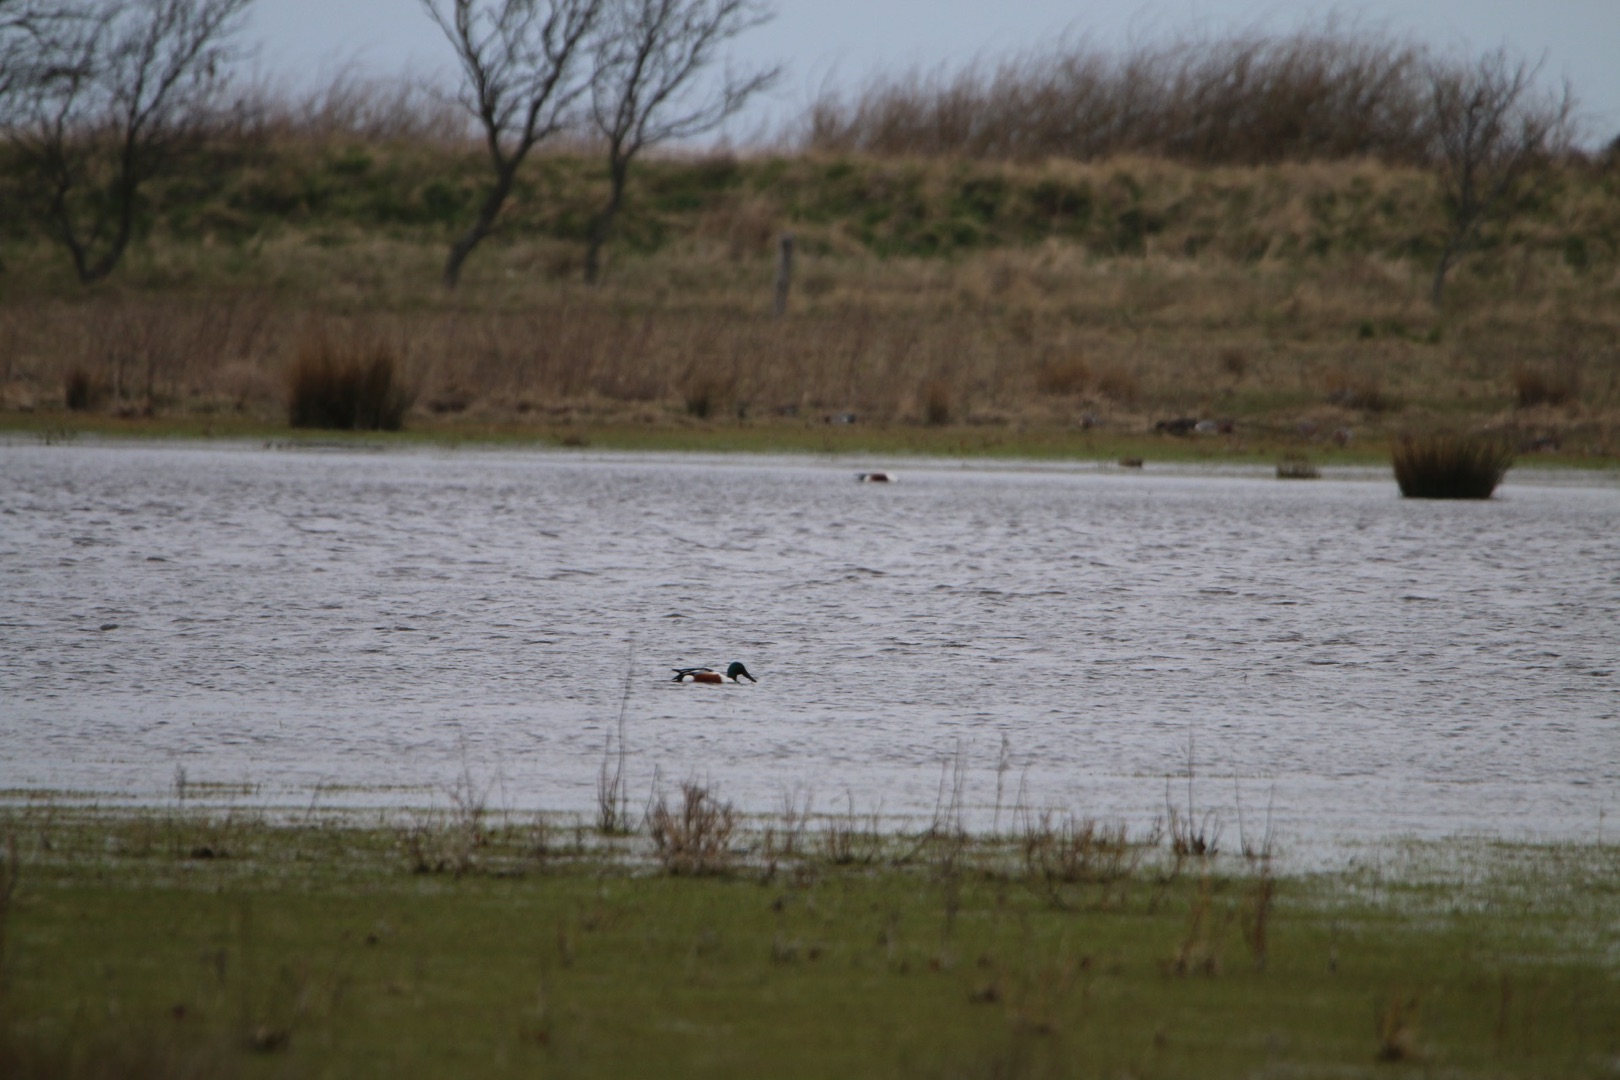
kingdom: Animalia
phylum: Chordata
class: Aves
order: Anseriformes
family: Anatidae
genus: Spatula
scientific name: Spatula clypeata
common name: Skeand
